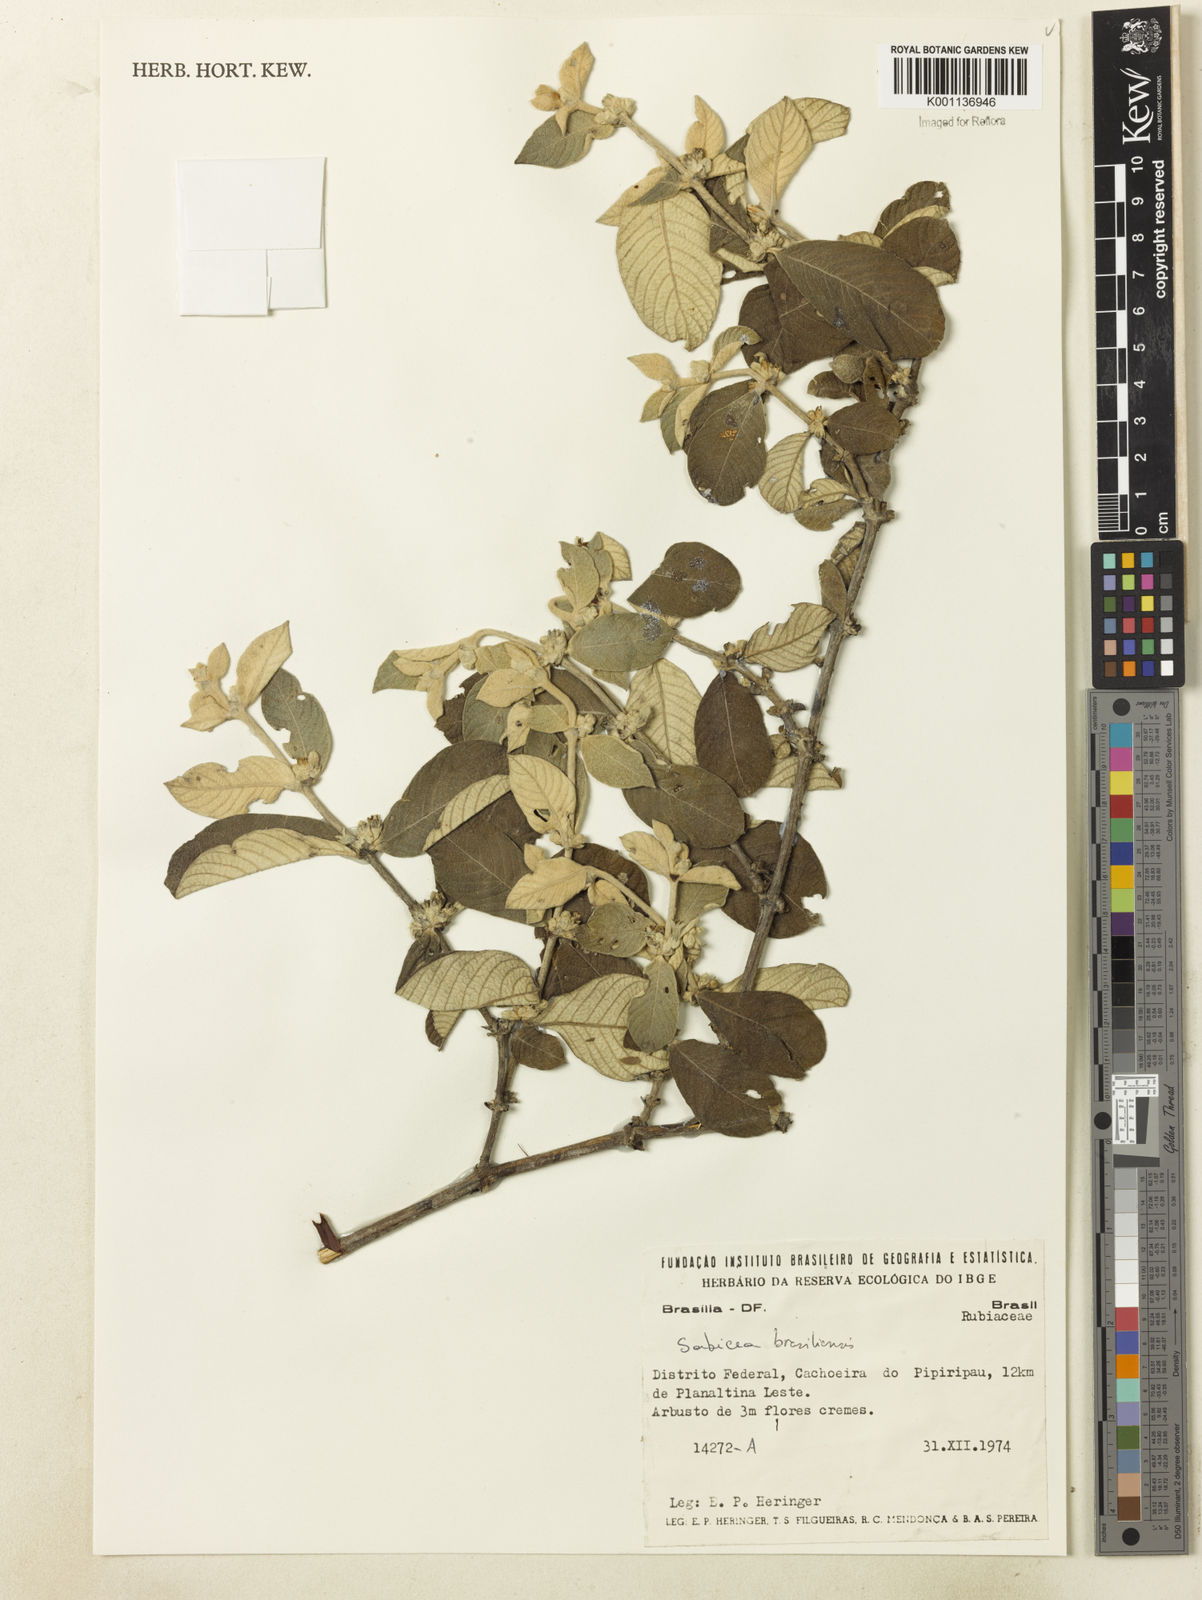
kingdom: Plantae
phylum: Tracheophyta
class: Magnoliopsida
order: Gentianales
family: Rubiaceae
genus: Sabicea
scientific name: Sabicea brasiliensis
